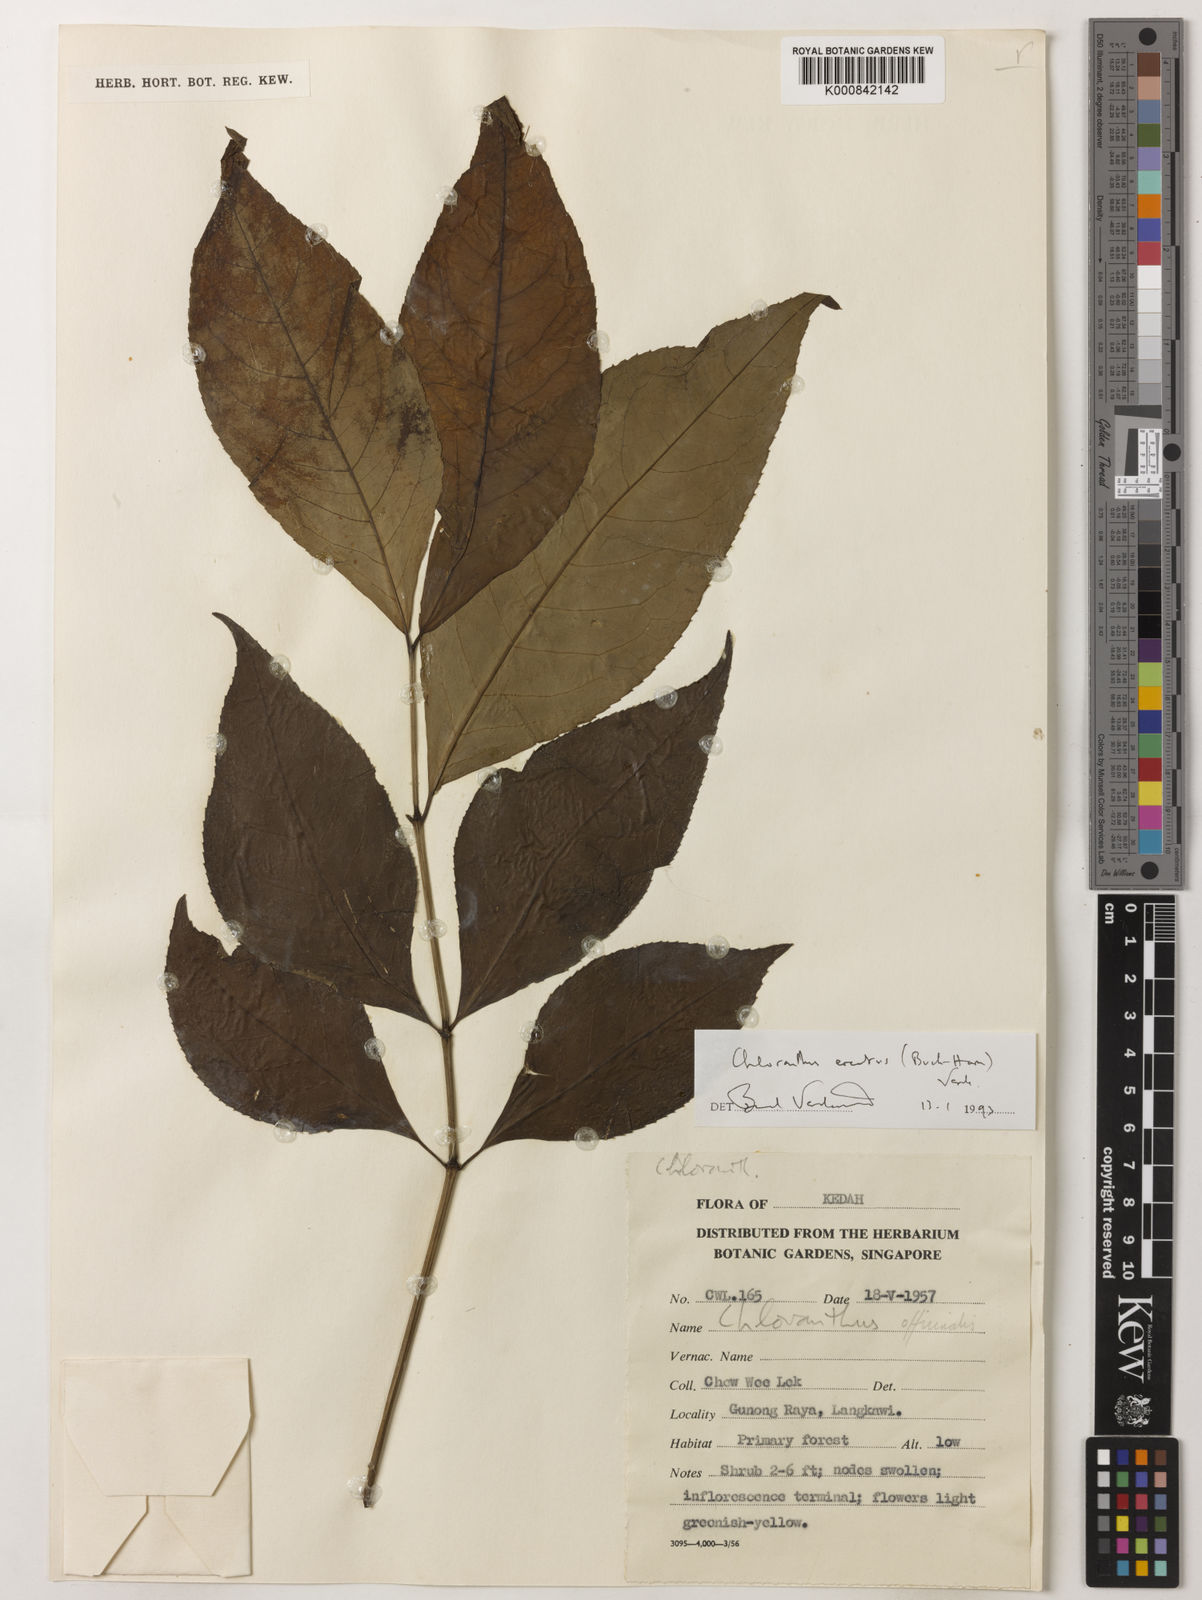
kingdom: Plantae
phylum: Tracheophyta
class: Magnoliopsida
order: Chloranthales
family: Chloranthaceae
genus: Chloranthus
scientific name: Chloranthus
